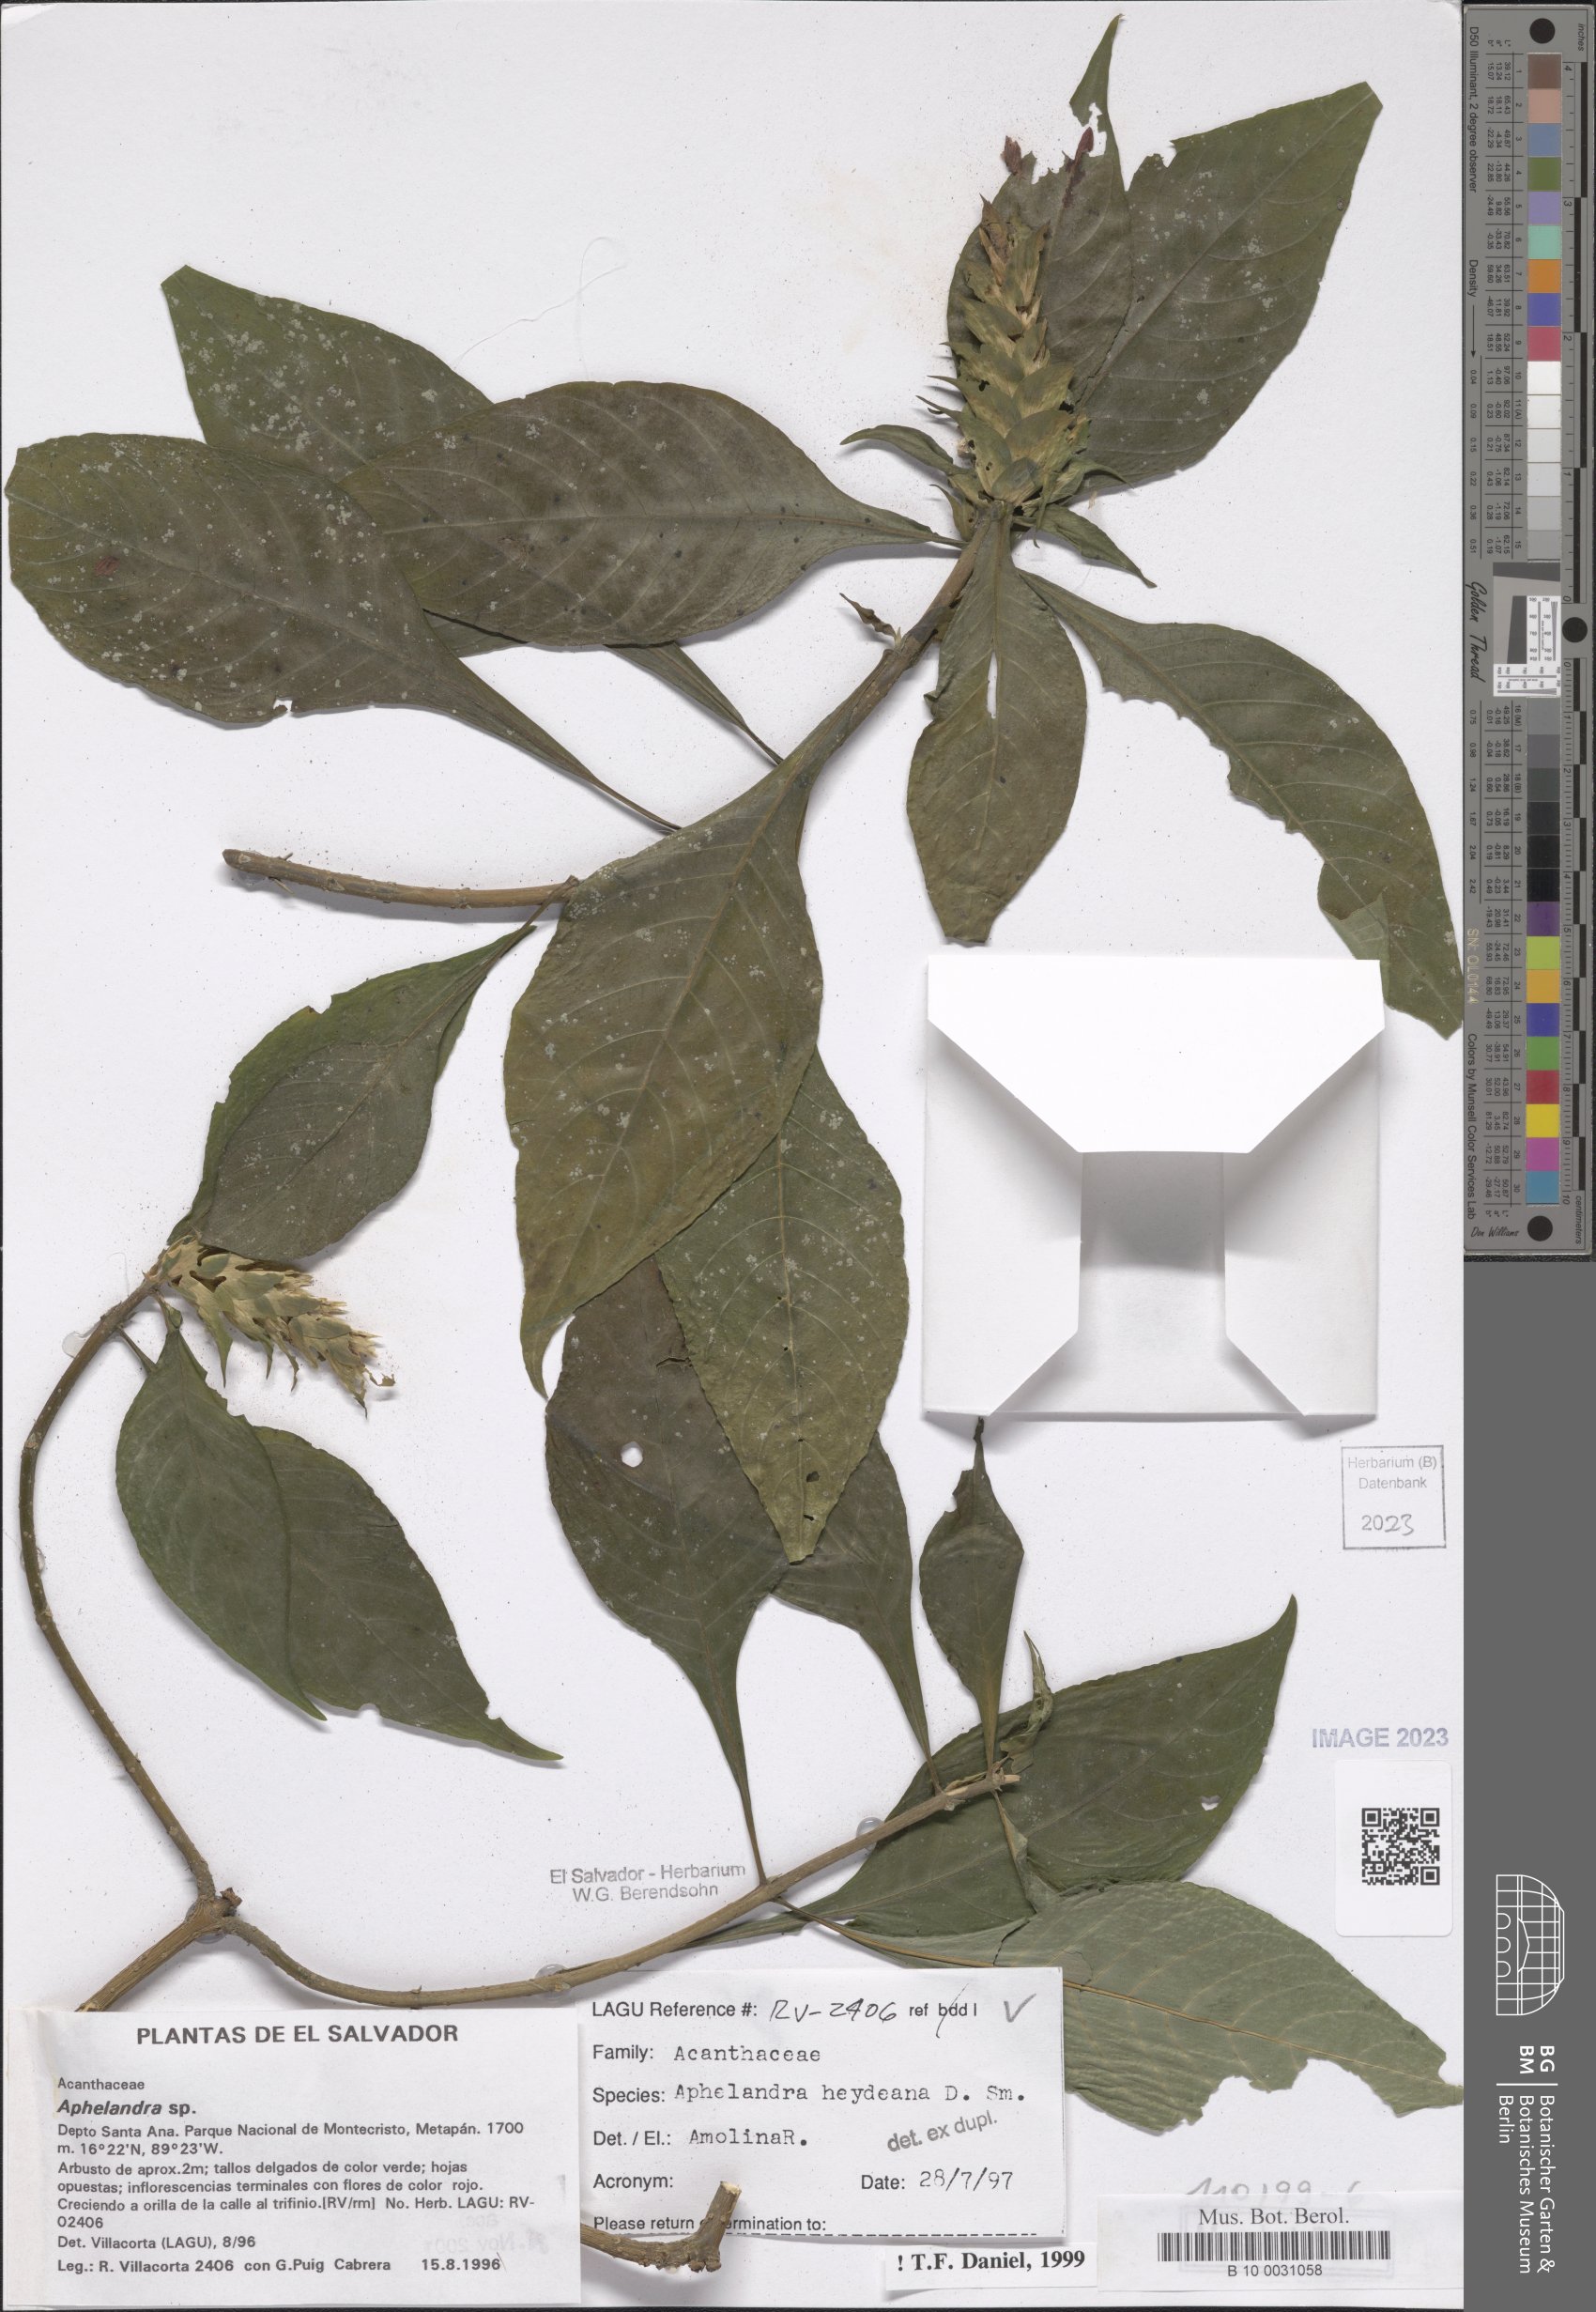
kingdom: Plantae
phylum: Tracheophyta
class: Magnoliopsida
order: Lamiales
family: Acanthaceae
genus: Aphelandra
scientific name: Aphelandra heydeana
